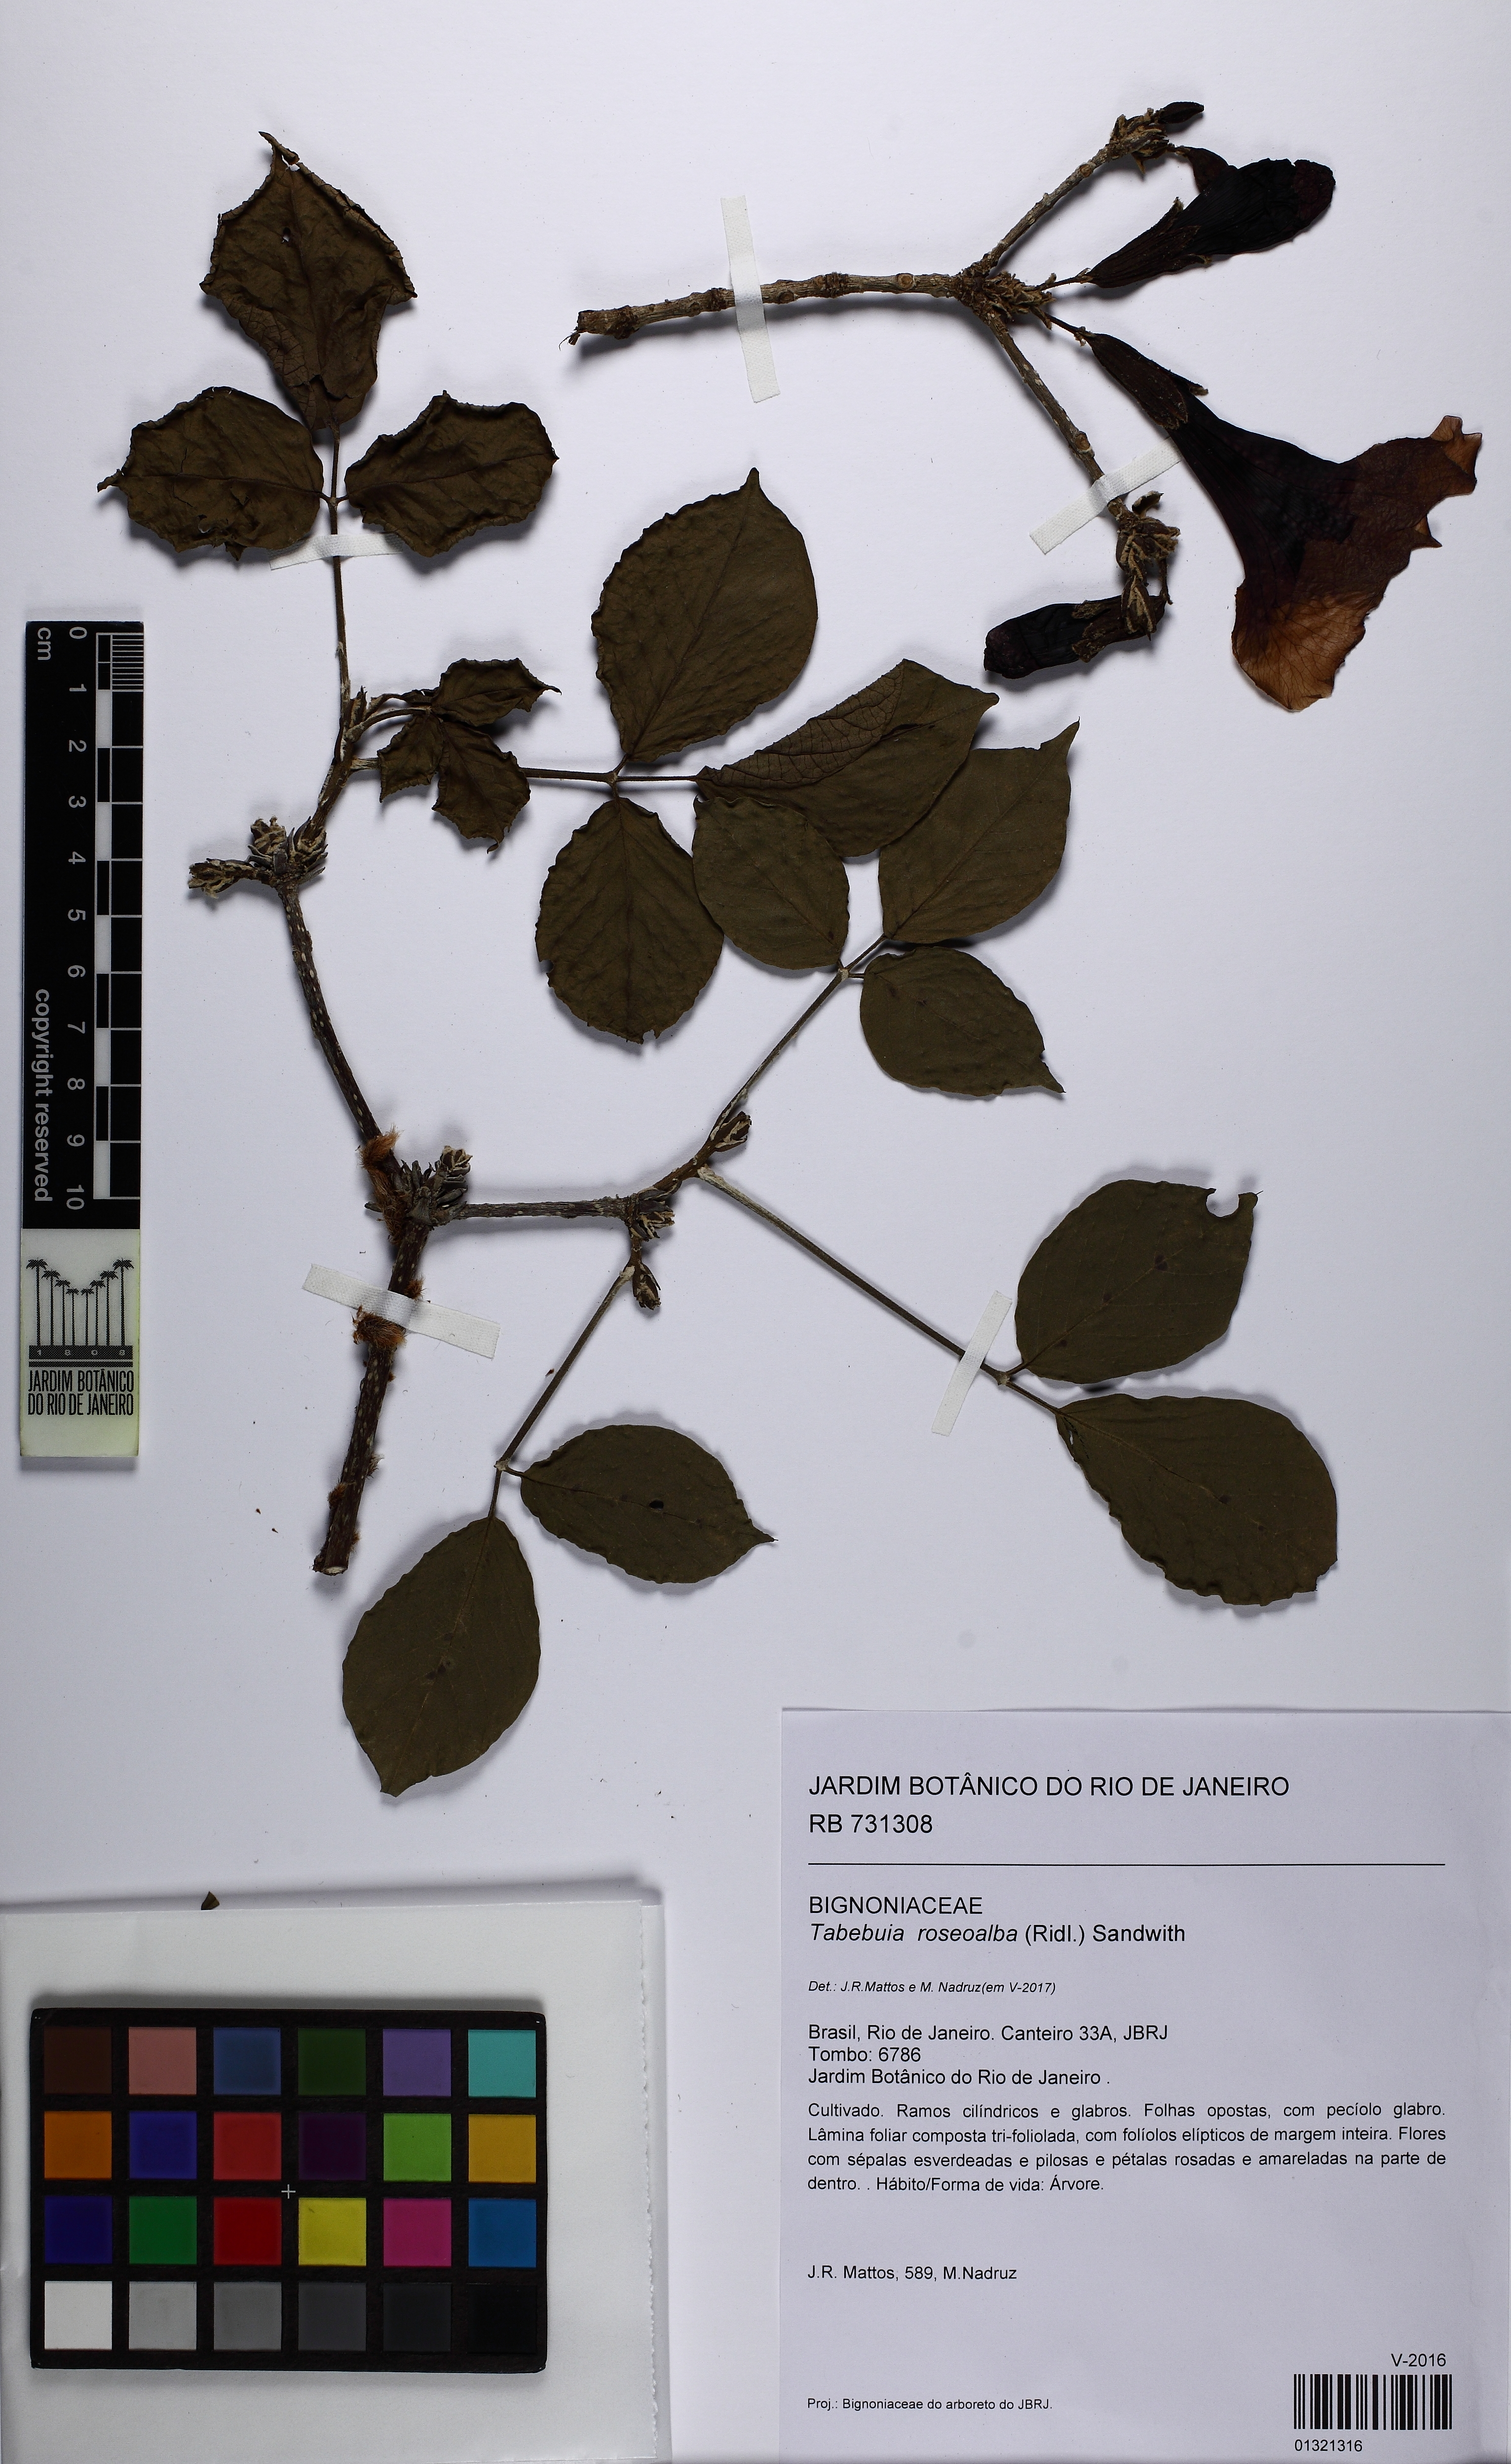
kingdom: Plantae
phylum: Tracheophyta
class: Magnoliopsida
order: Lamiales
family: Bignoniaceae
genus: Tabebuia
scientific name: Tabebuia moaensis
